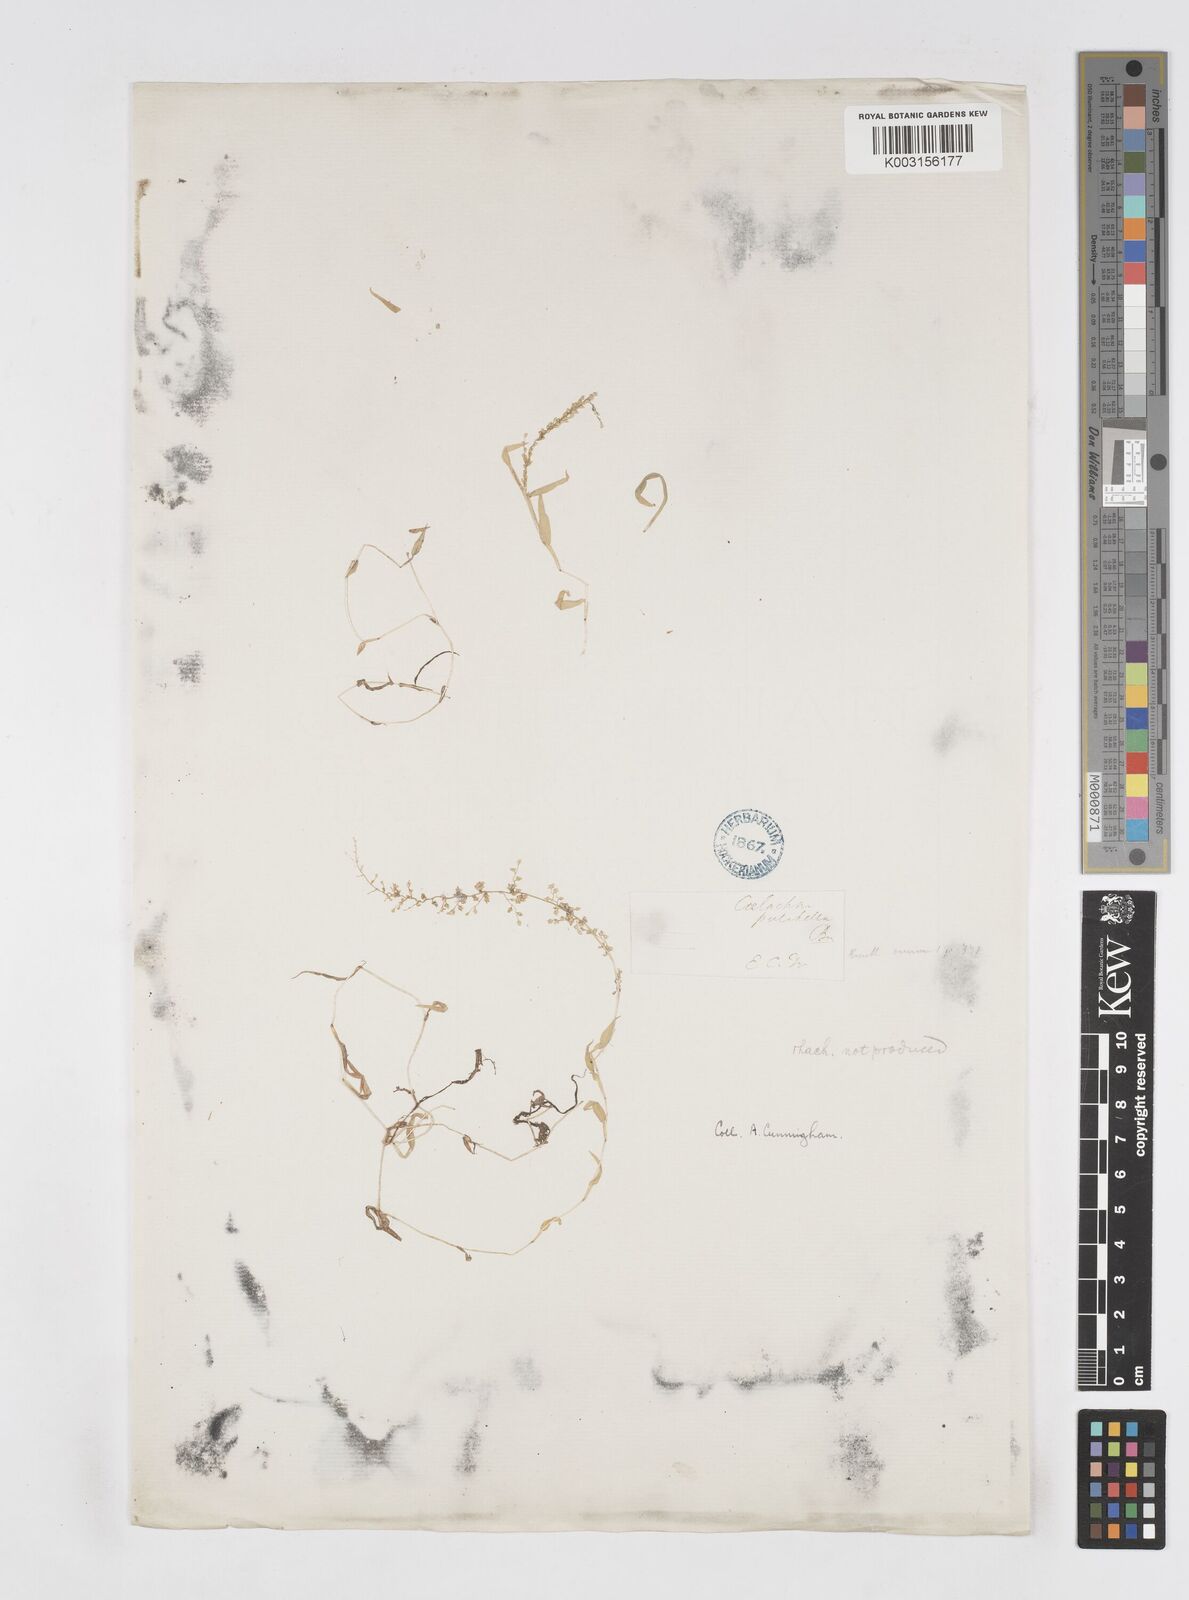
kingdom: Plantae
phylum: Tracheophyta
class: Liliopsida
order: Poales
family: Poaceae
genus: Coelachne
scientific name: Coelachne pulchella
